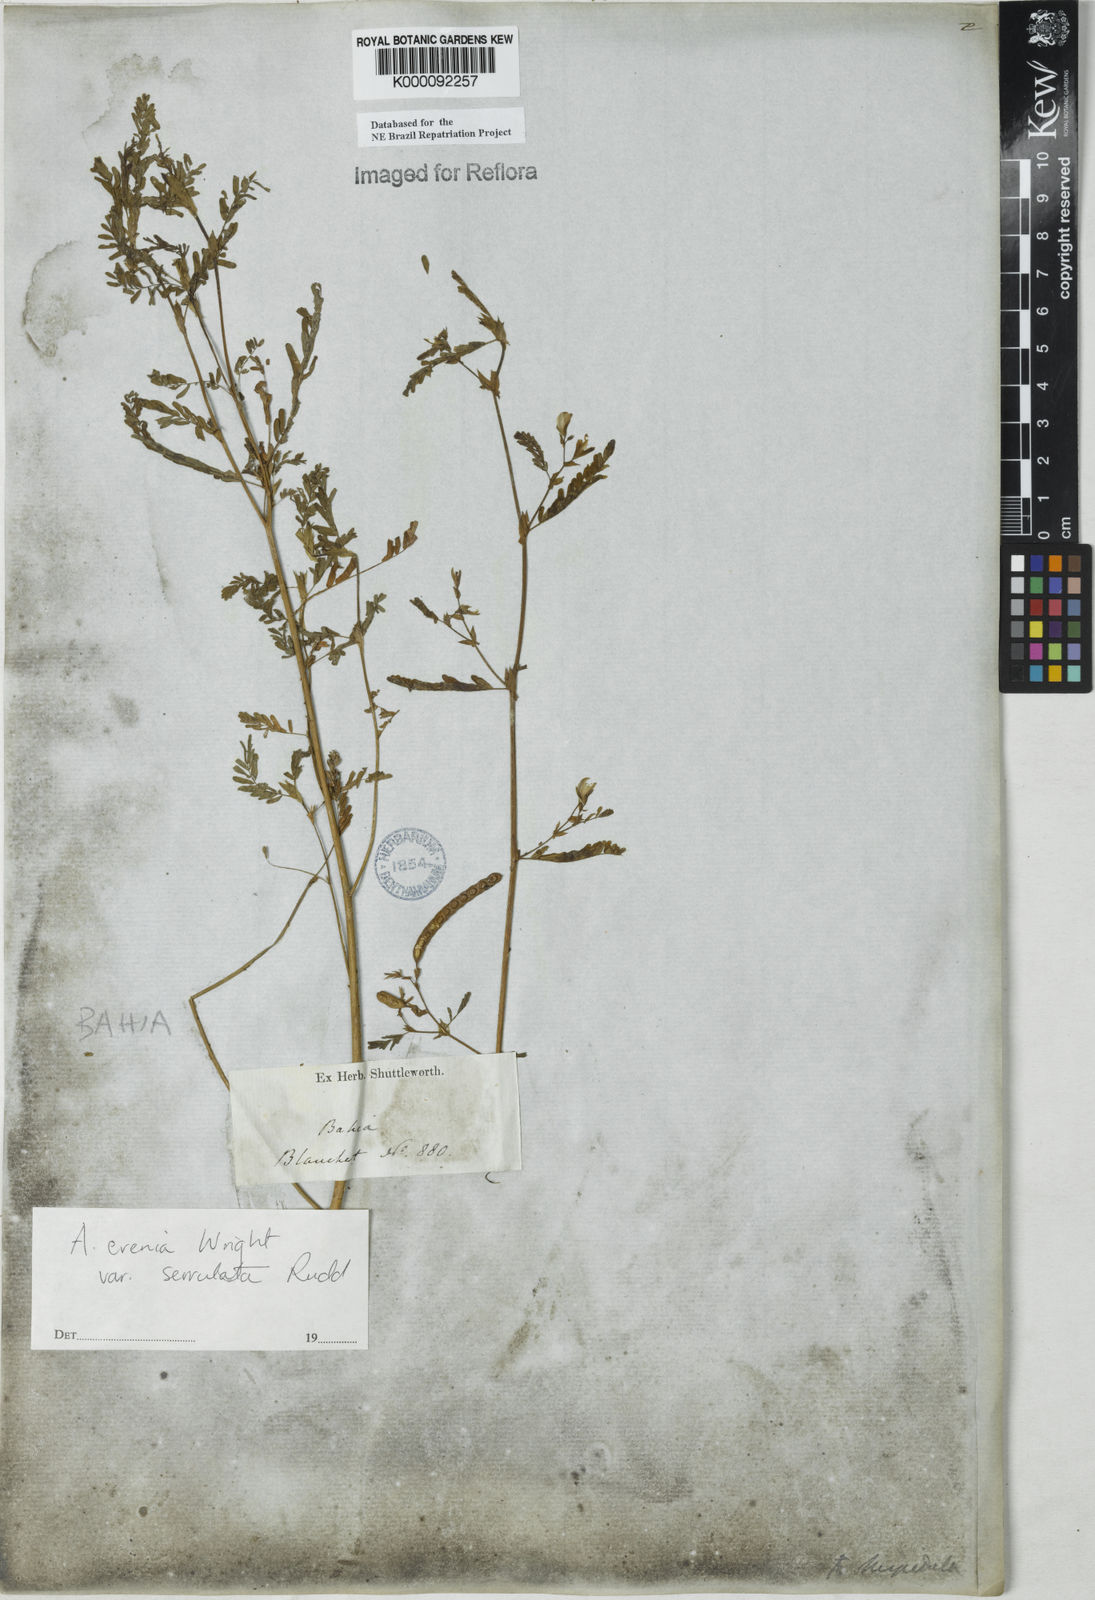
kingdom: Plantae
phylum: Tracheophyta
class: Magnoliopsida
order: Fabales
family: Fabaceae
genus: Aeschynomene
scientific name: Aeschynomene evenia
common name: Shrubby jointvetch
